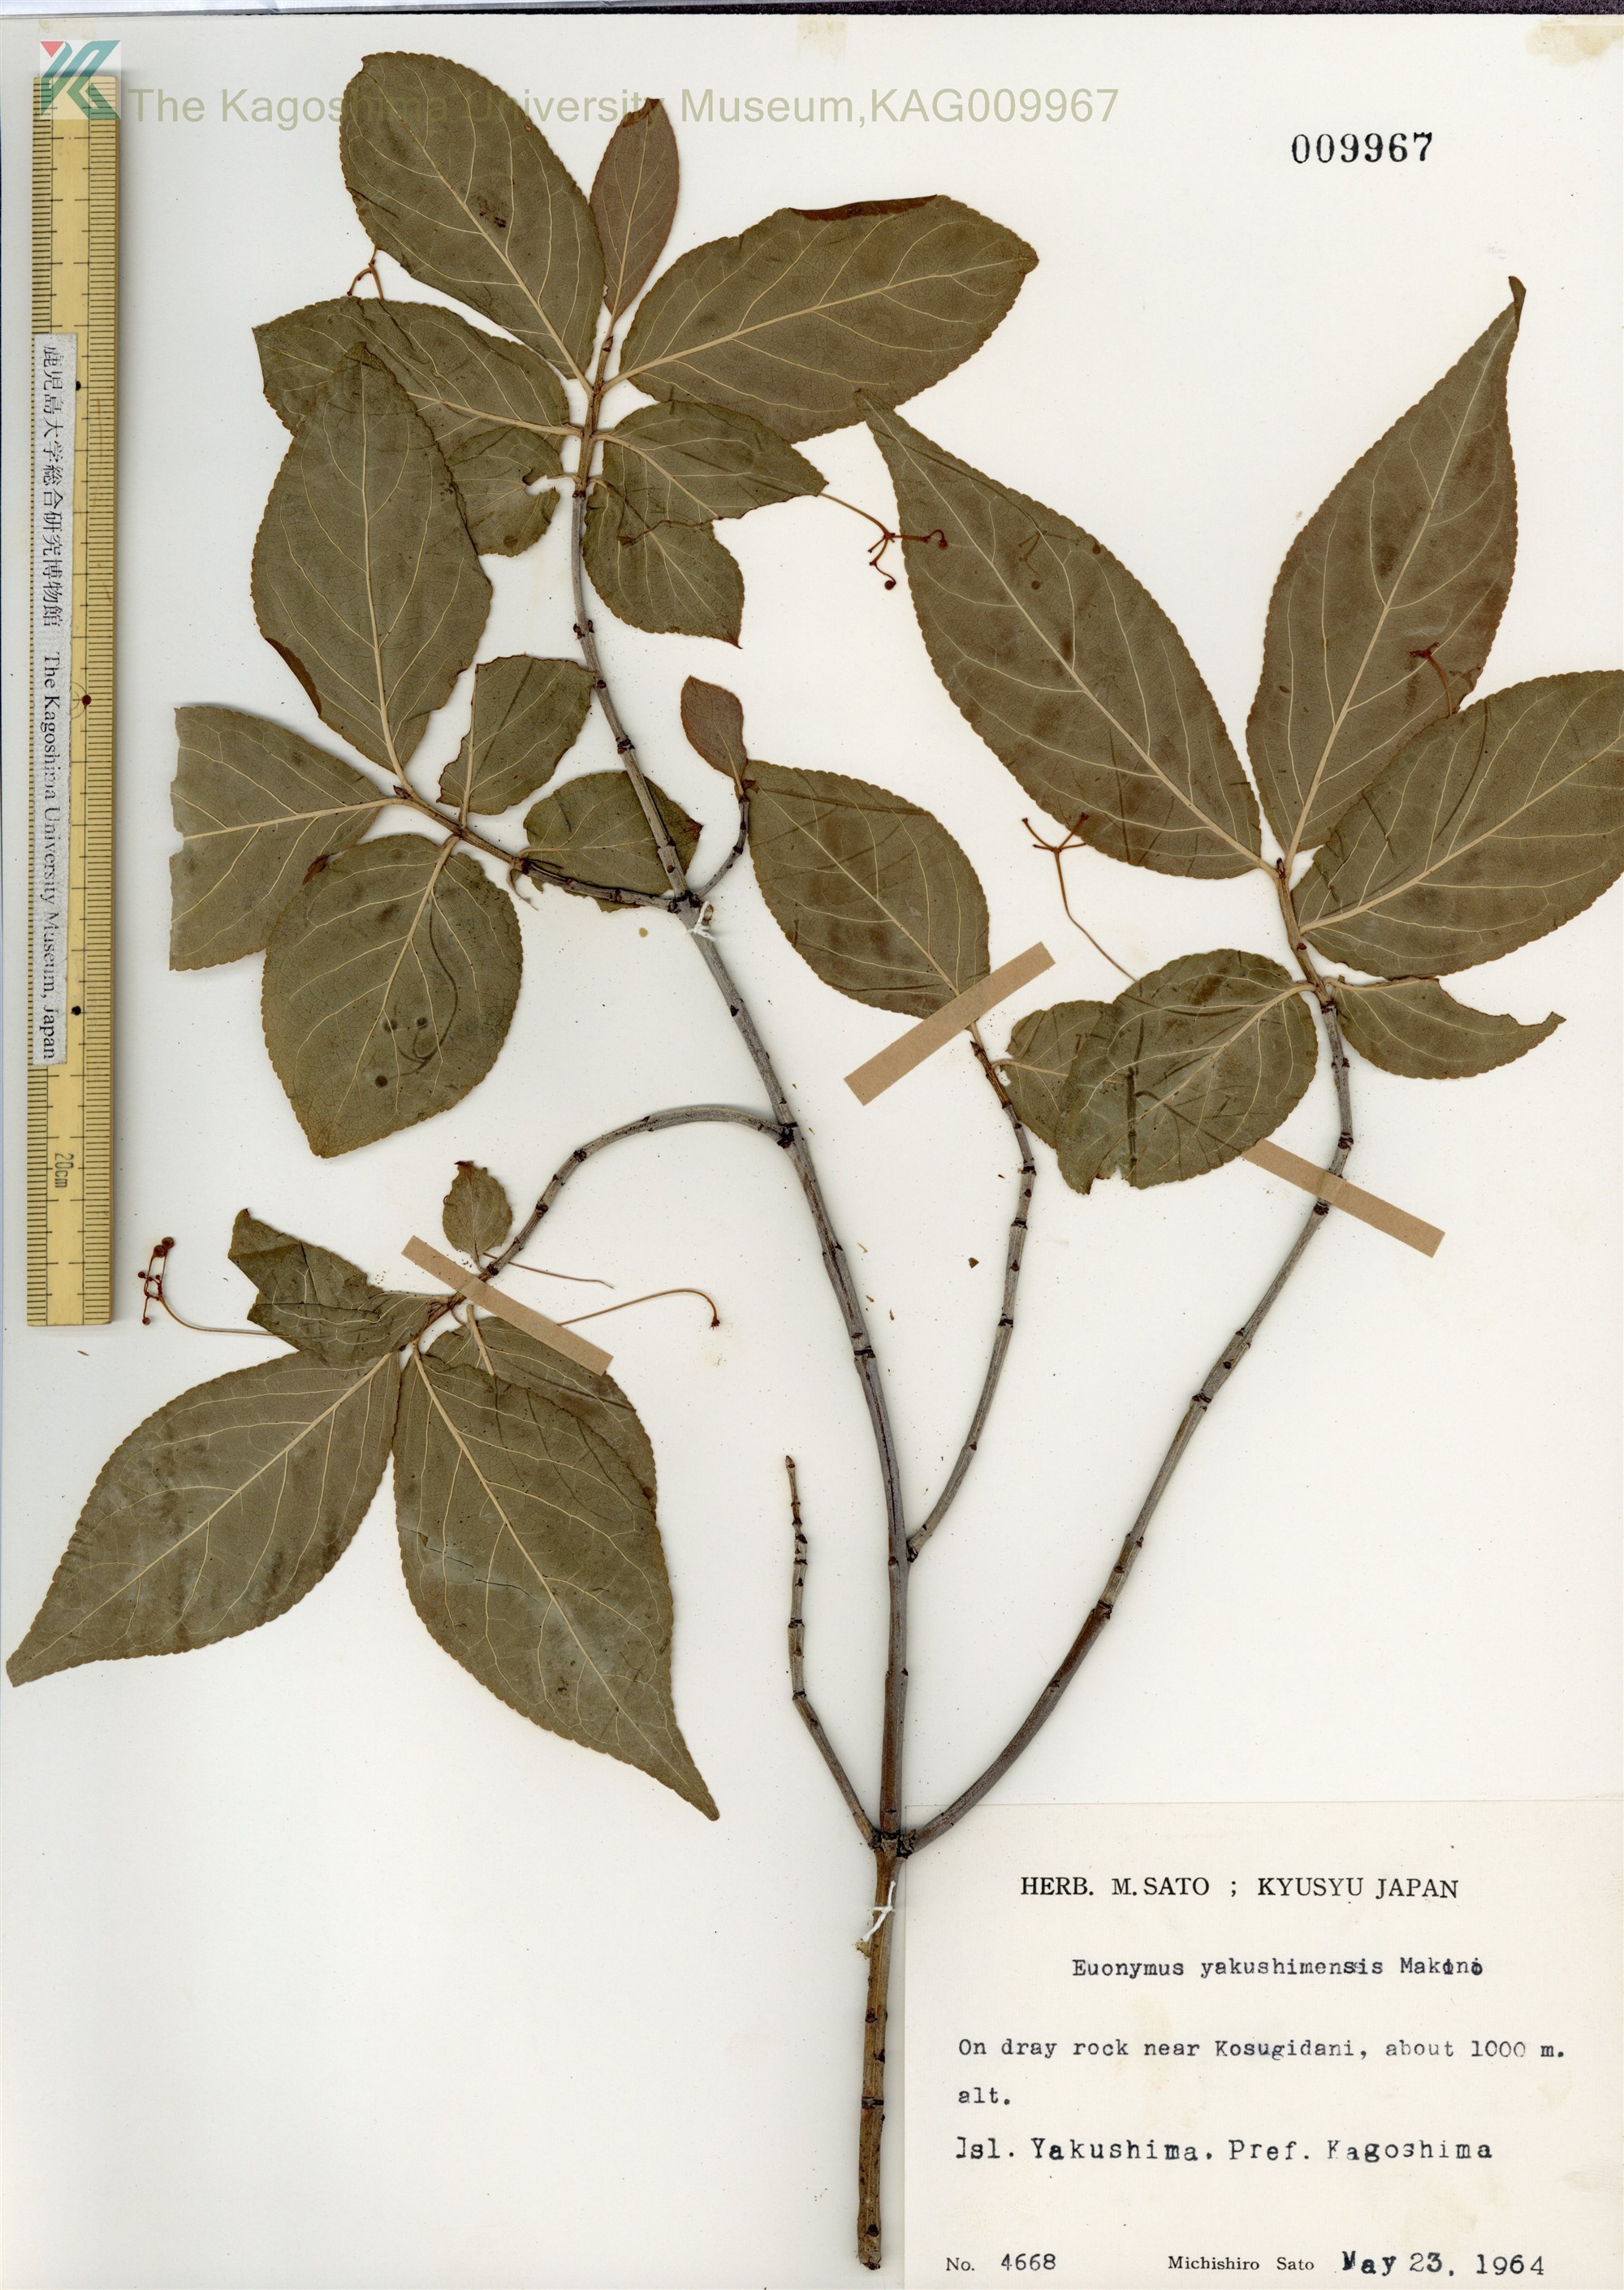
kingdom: Plantae
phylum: Tracheophyta
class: Magnoliopsida
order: Celastrales
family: Celastraceae
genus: Euonymus
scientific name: Euonymus yakushimensis
